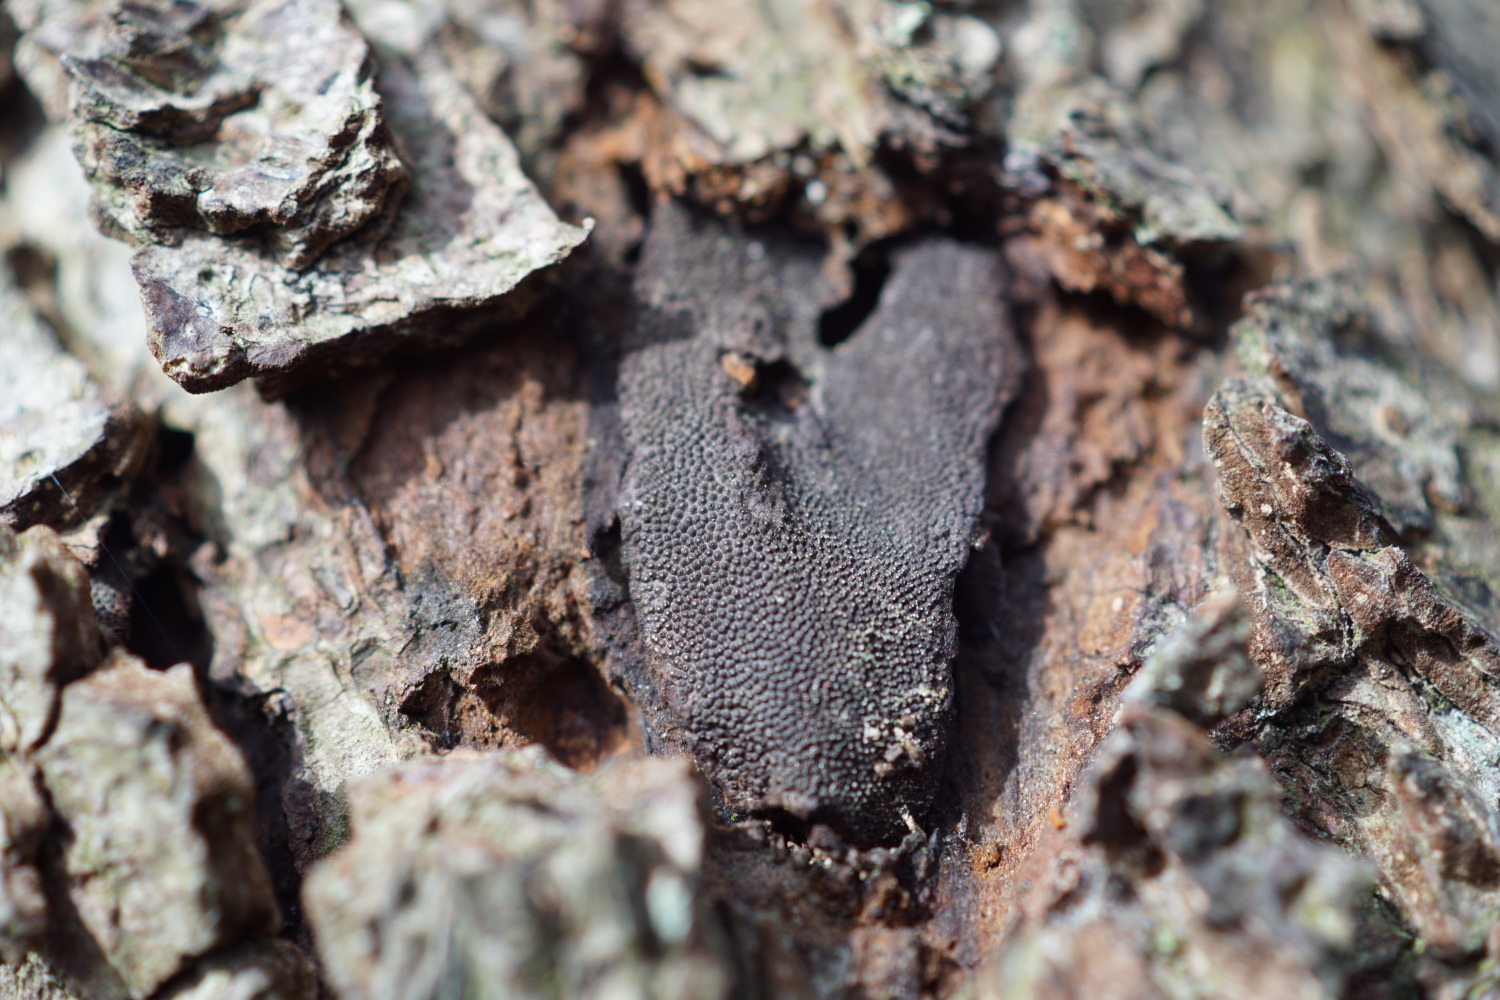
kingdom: Fungi
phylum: Ascomycota
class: Sordariomycetes
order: Boliniales
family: Boliniaceae
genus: Camarops
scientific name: Camarops polysperma
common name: elle-kulsnegl
